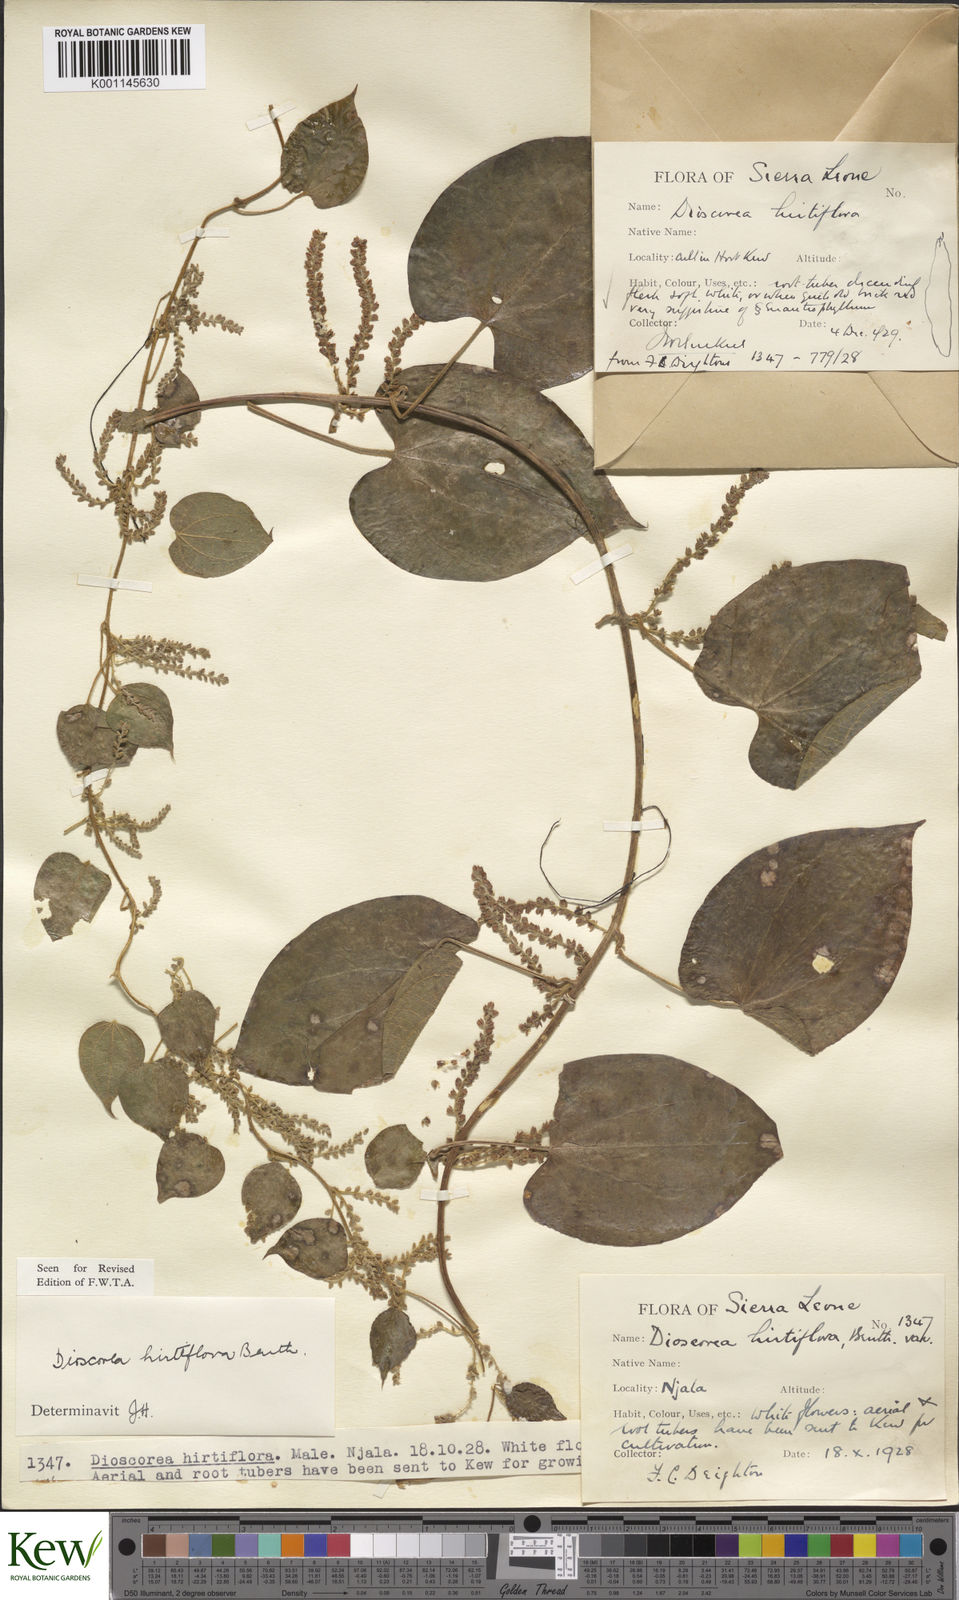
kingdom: Plantae
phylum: Tracheophyta
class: Liliopsida
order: Dioscoreales
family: Dioscoreaceae
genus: Dioscorea
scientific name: Dioscorea hirtiflora
